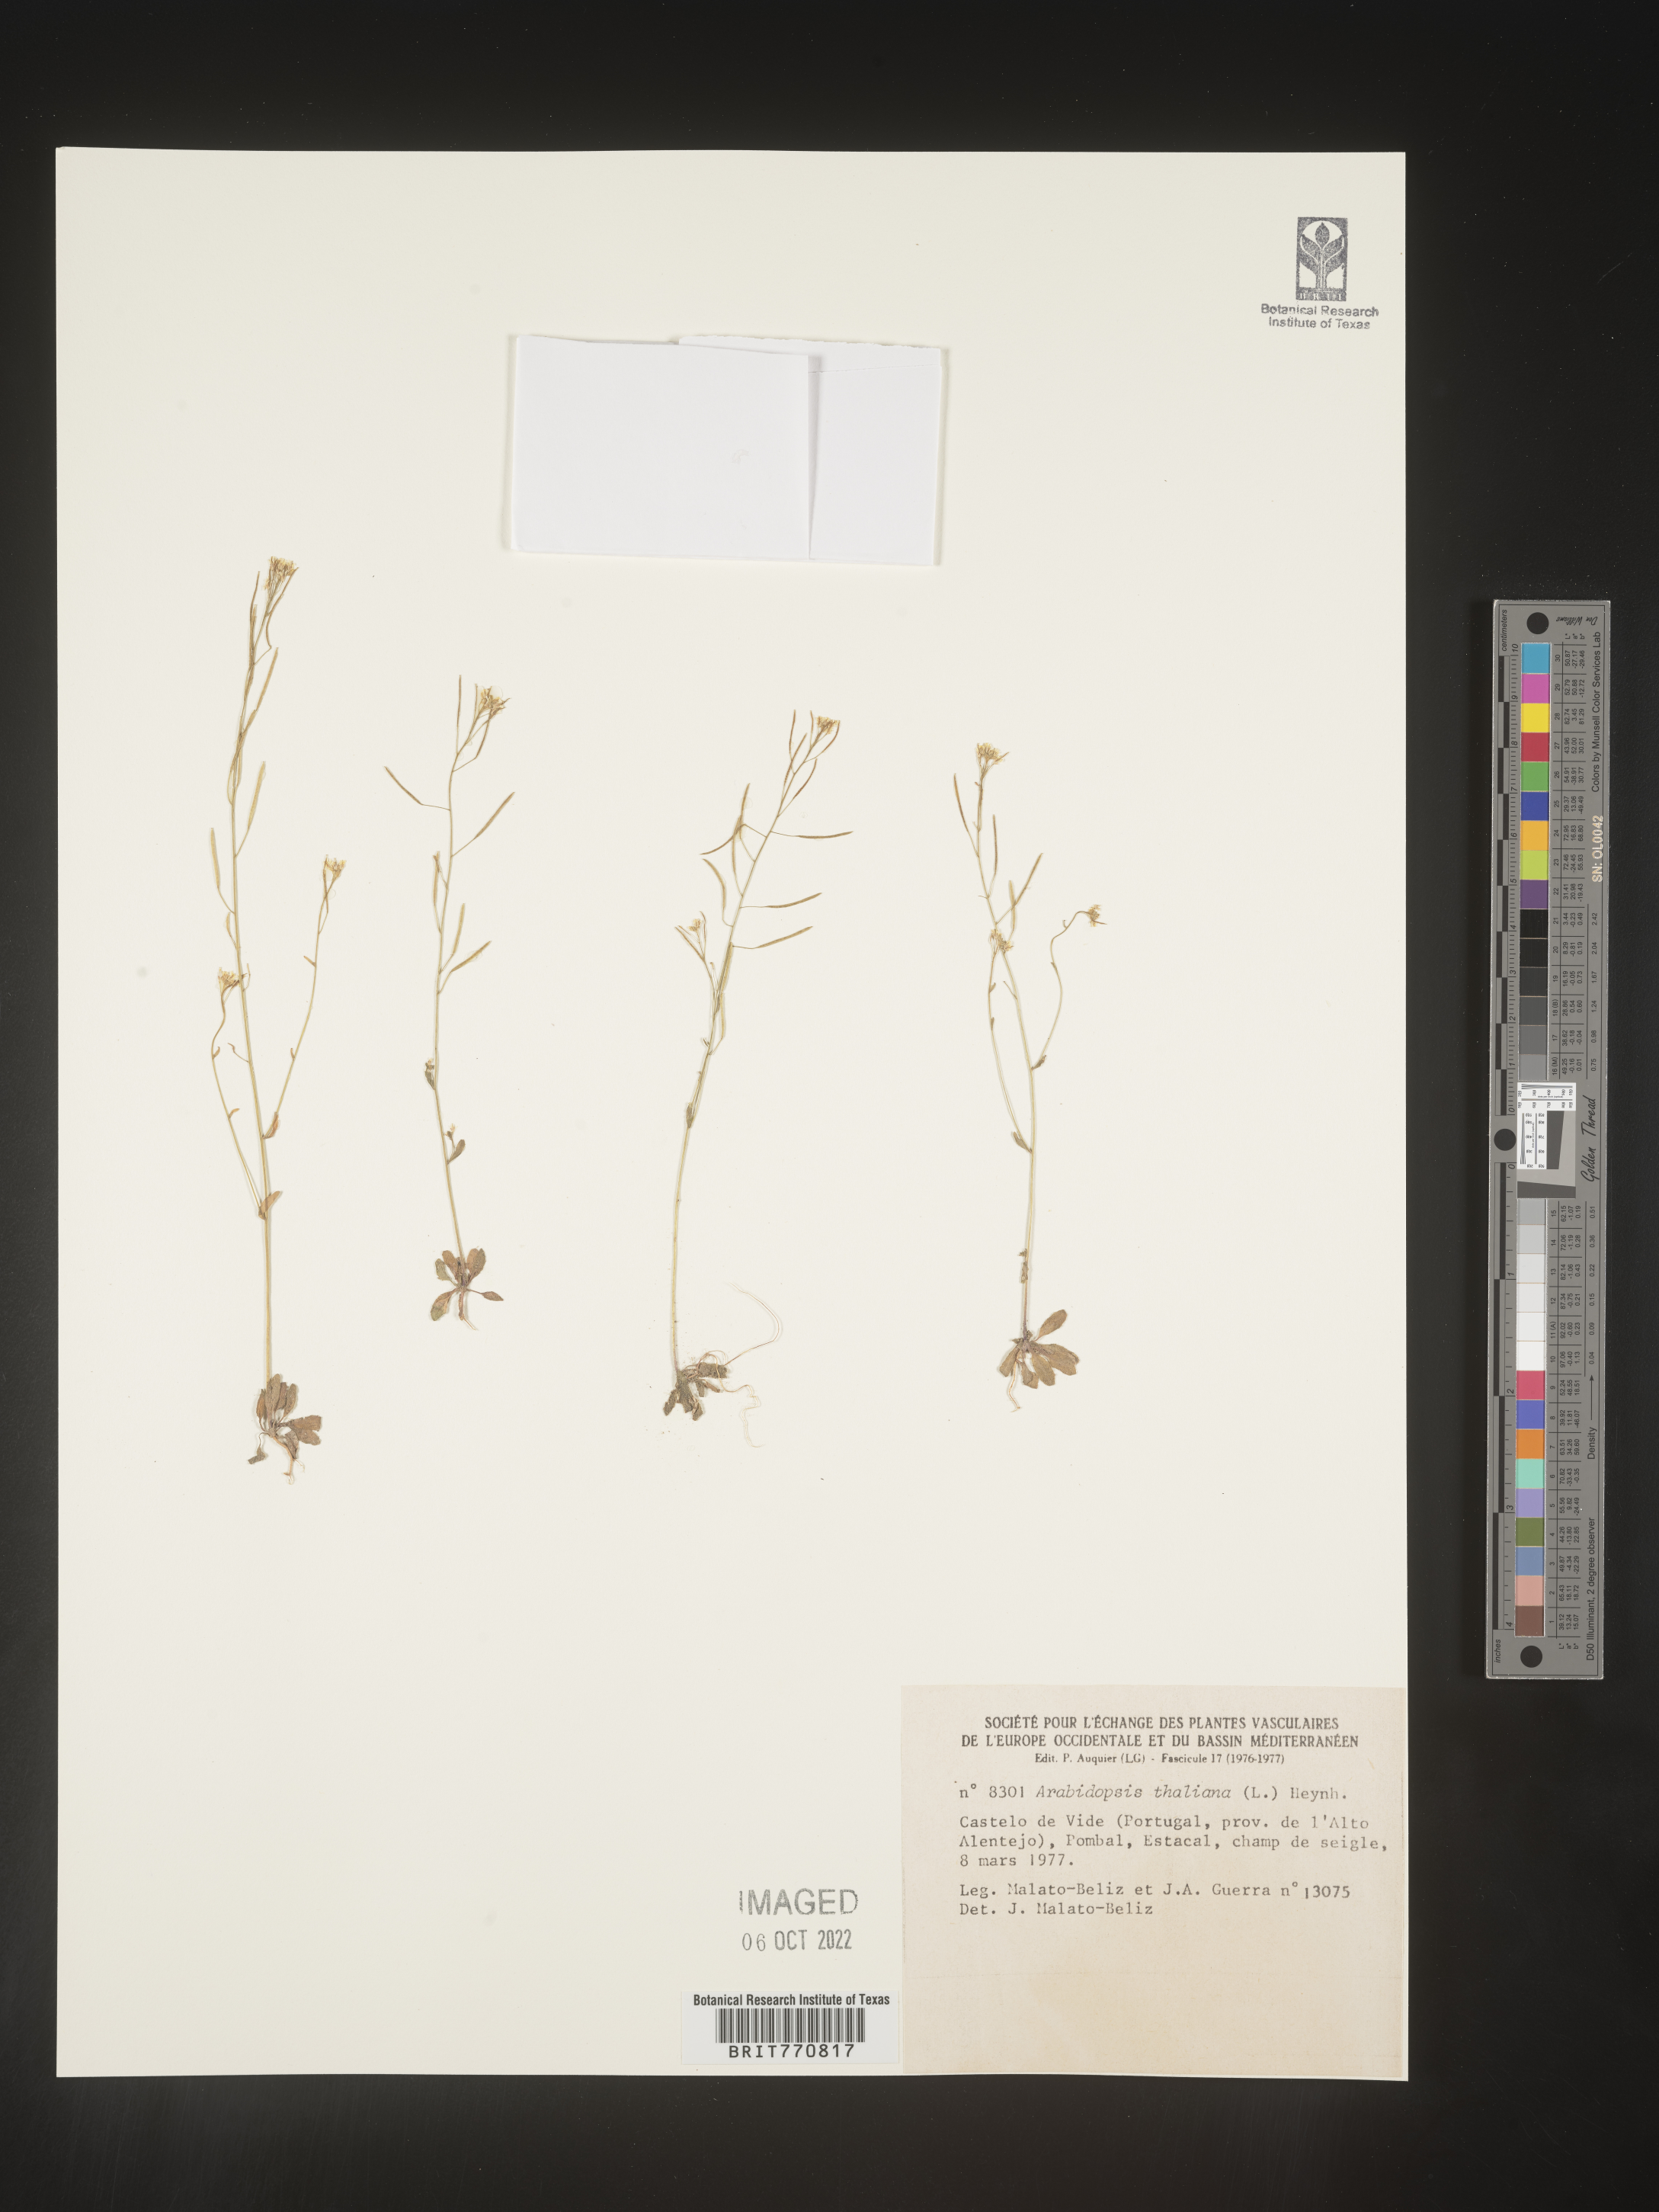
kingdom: Plantae
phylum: Tracheophyta
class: Magnoliopsida
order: Brassicales
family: Brassicaceae
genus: Arabidopsis
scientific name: Arabidopsis
